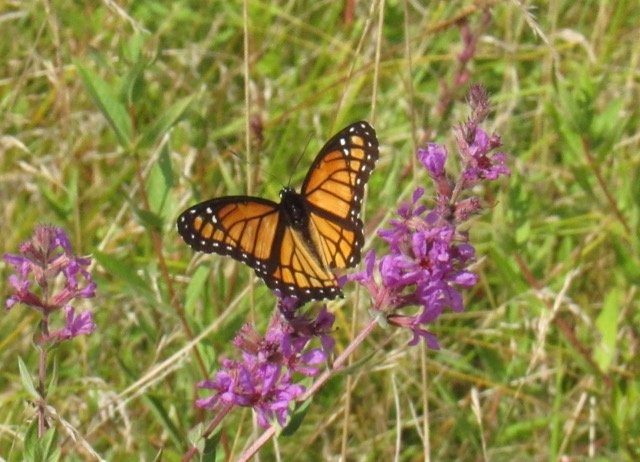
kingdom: Animalia
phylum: Arthropoda
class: Insecta
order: Lepidoptera
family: Nymphalidae
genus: Limenitis
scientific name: Limenitis archippus
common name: Viceroy
